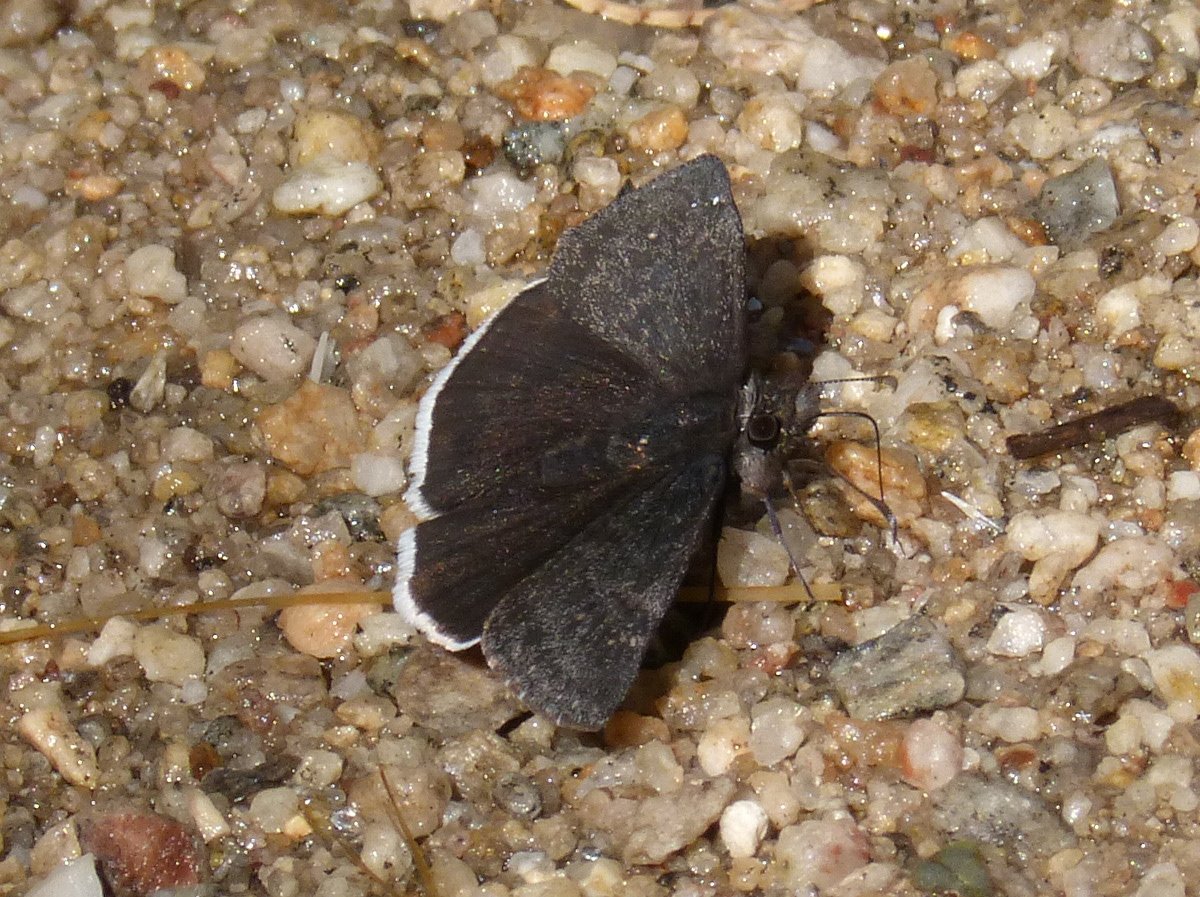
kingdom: Animalia
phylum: Arthropoda
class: Insecta
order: Lepidoptera
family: Hesperiidae
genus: Erynnis
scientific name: Erynnis funeralis
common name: Funereal Duskywing
